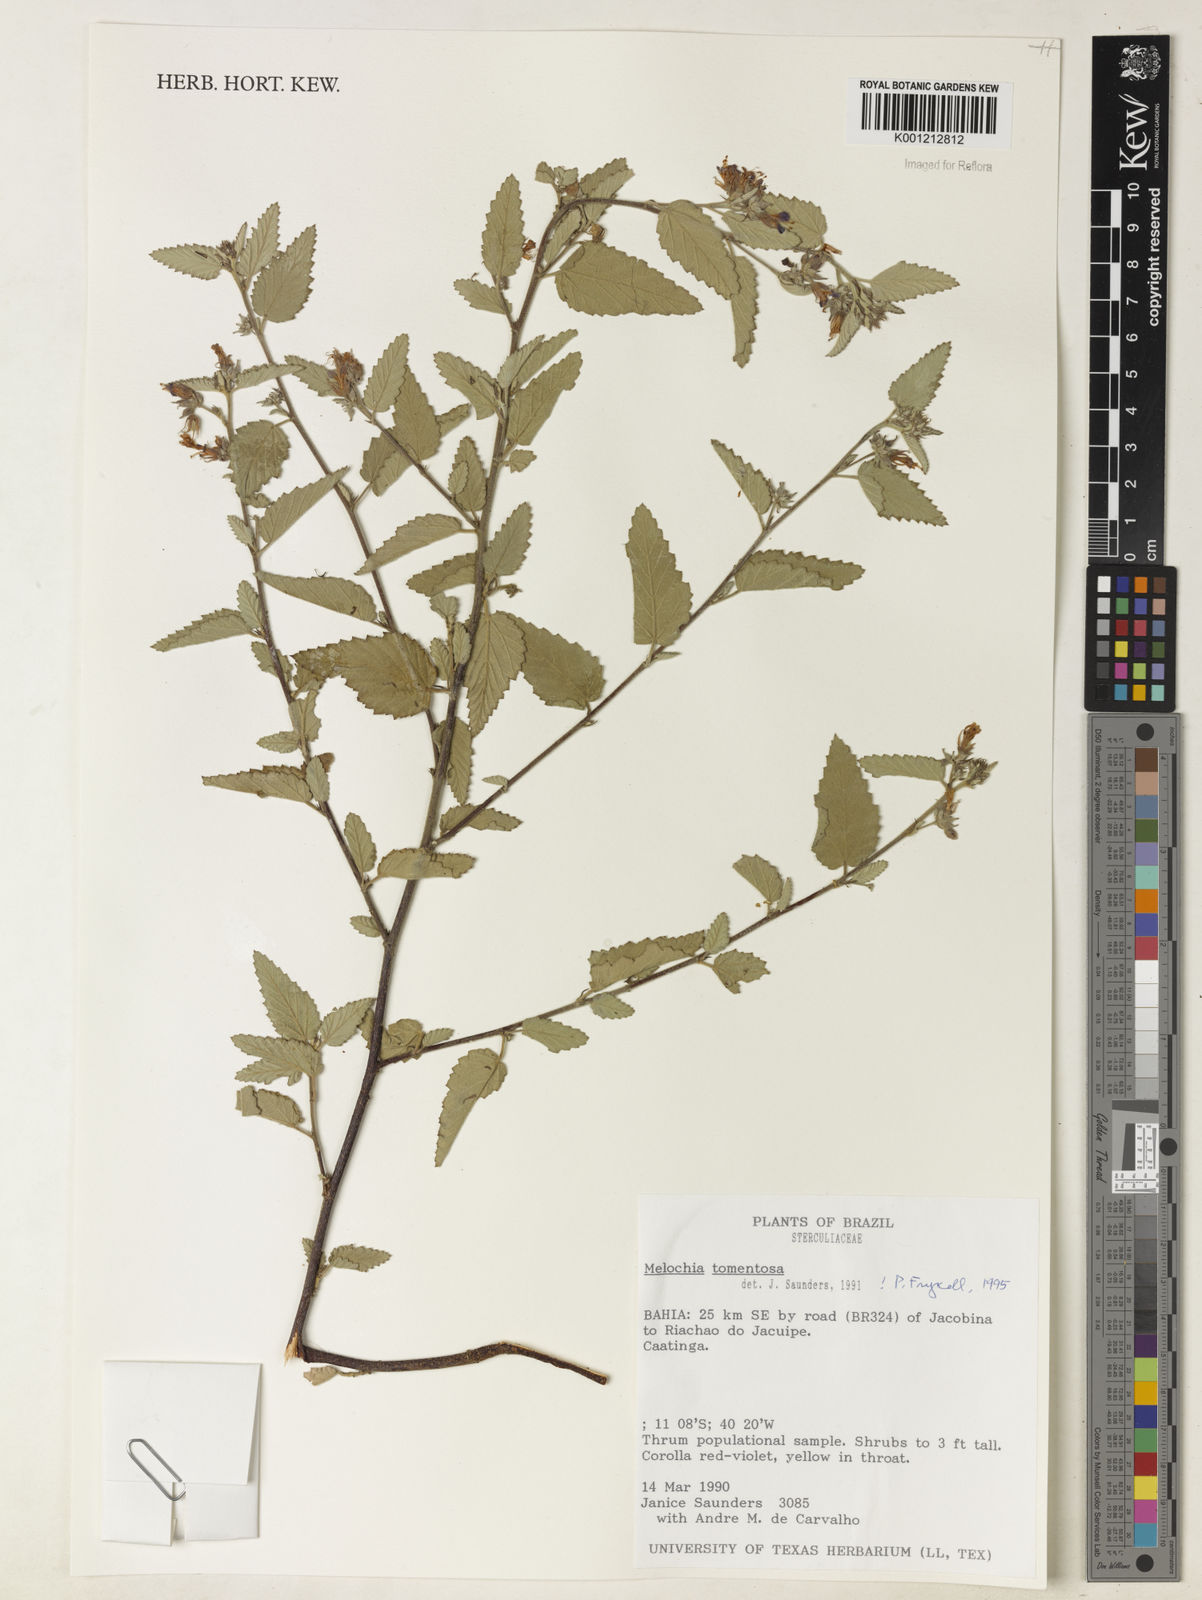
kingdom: Plantae
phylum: Tracheophyta
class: Magnoliopsida
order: Malvales
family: Malvaceae
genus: Melochia
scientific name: Melochia tomentosa
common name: Black torch
